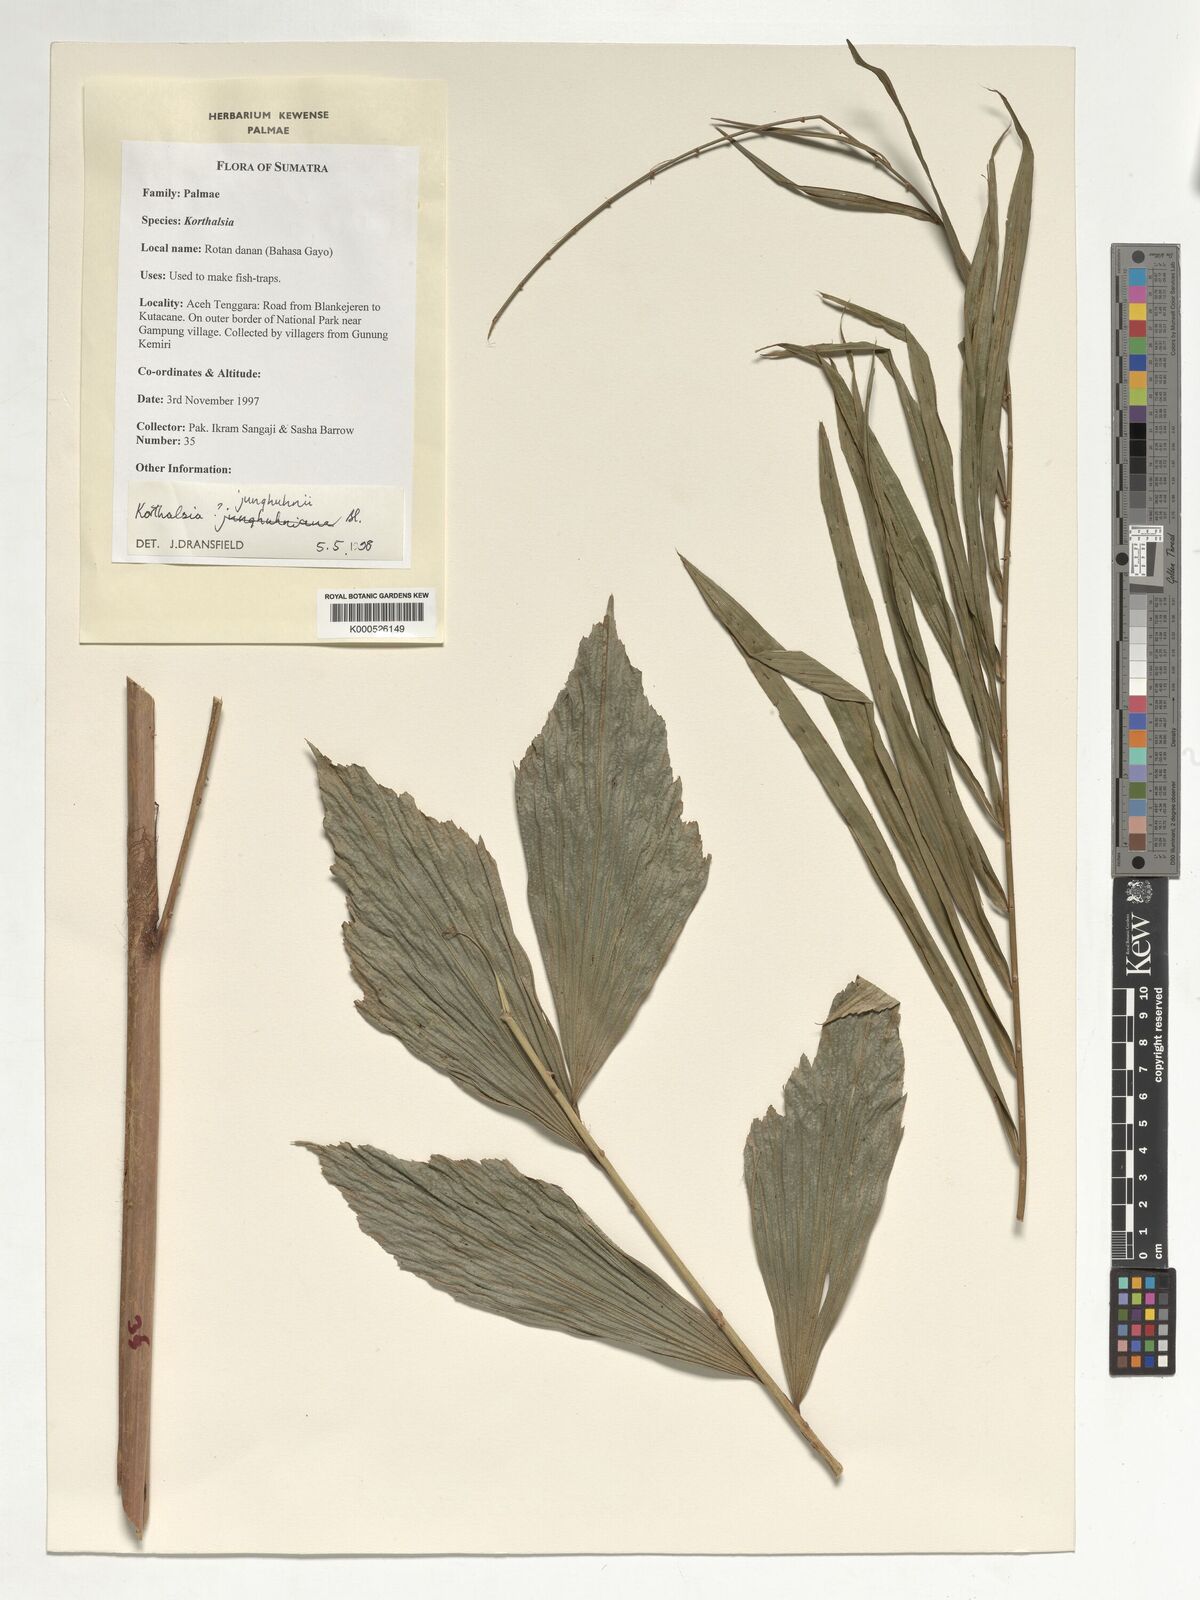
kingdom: Plantae
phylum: Tracheophyta
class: Liliopsida
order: Arecales
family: Arecaceae
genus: Korthalsia
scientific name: Korthalsia junghuhnii
